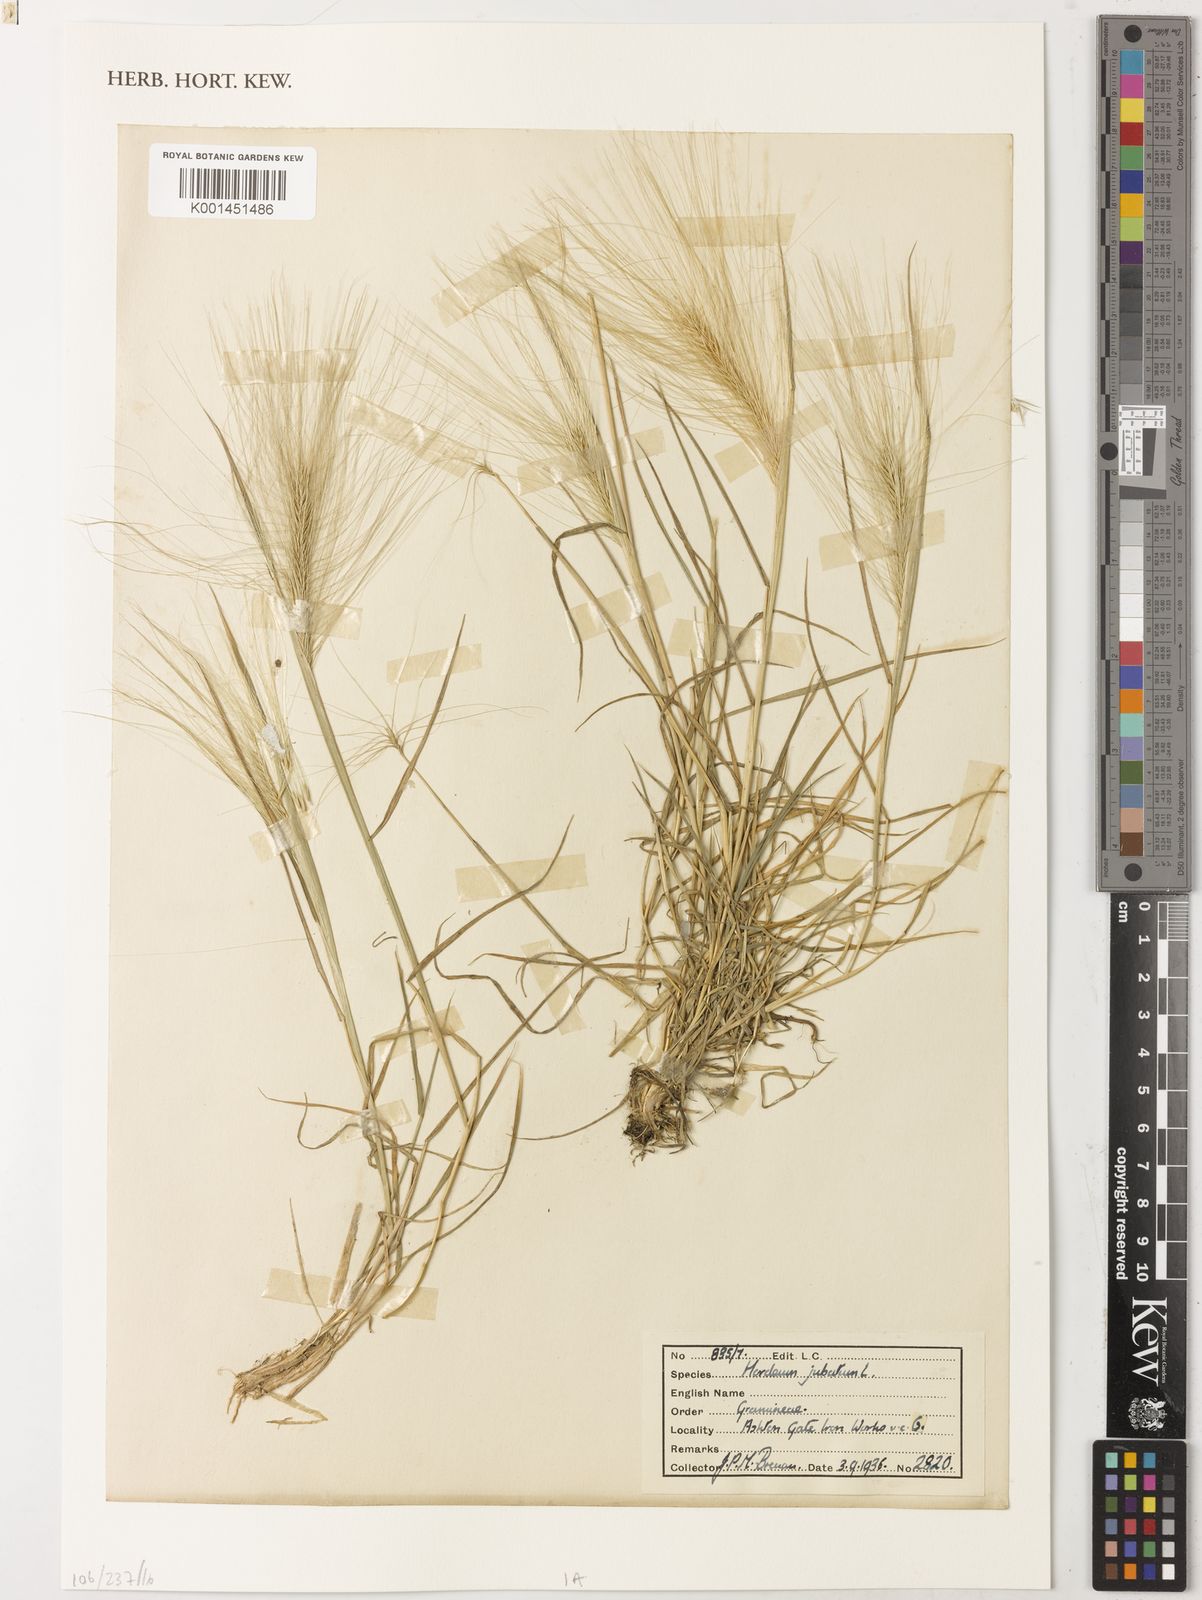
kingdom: Plantae
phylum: Tracheophyta
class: Liliopsida
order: Poales
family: Poaceae
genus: Hordeum
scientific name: Hordeum jubatum
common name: Foxtail barley
